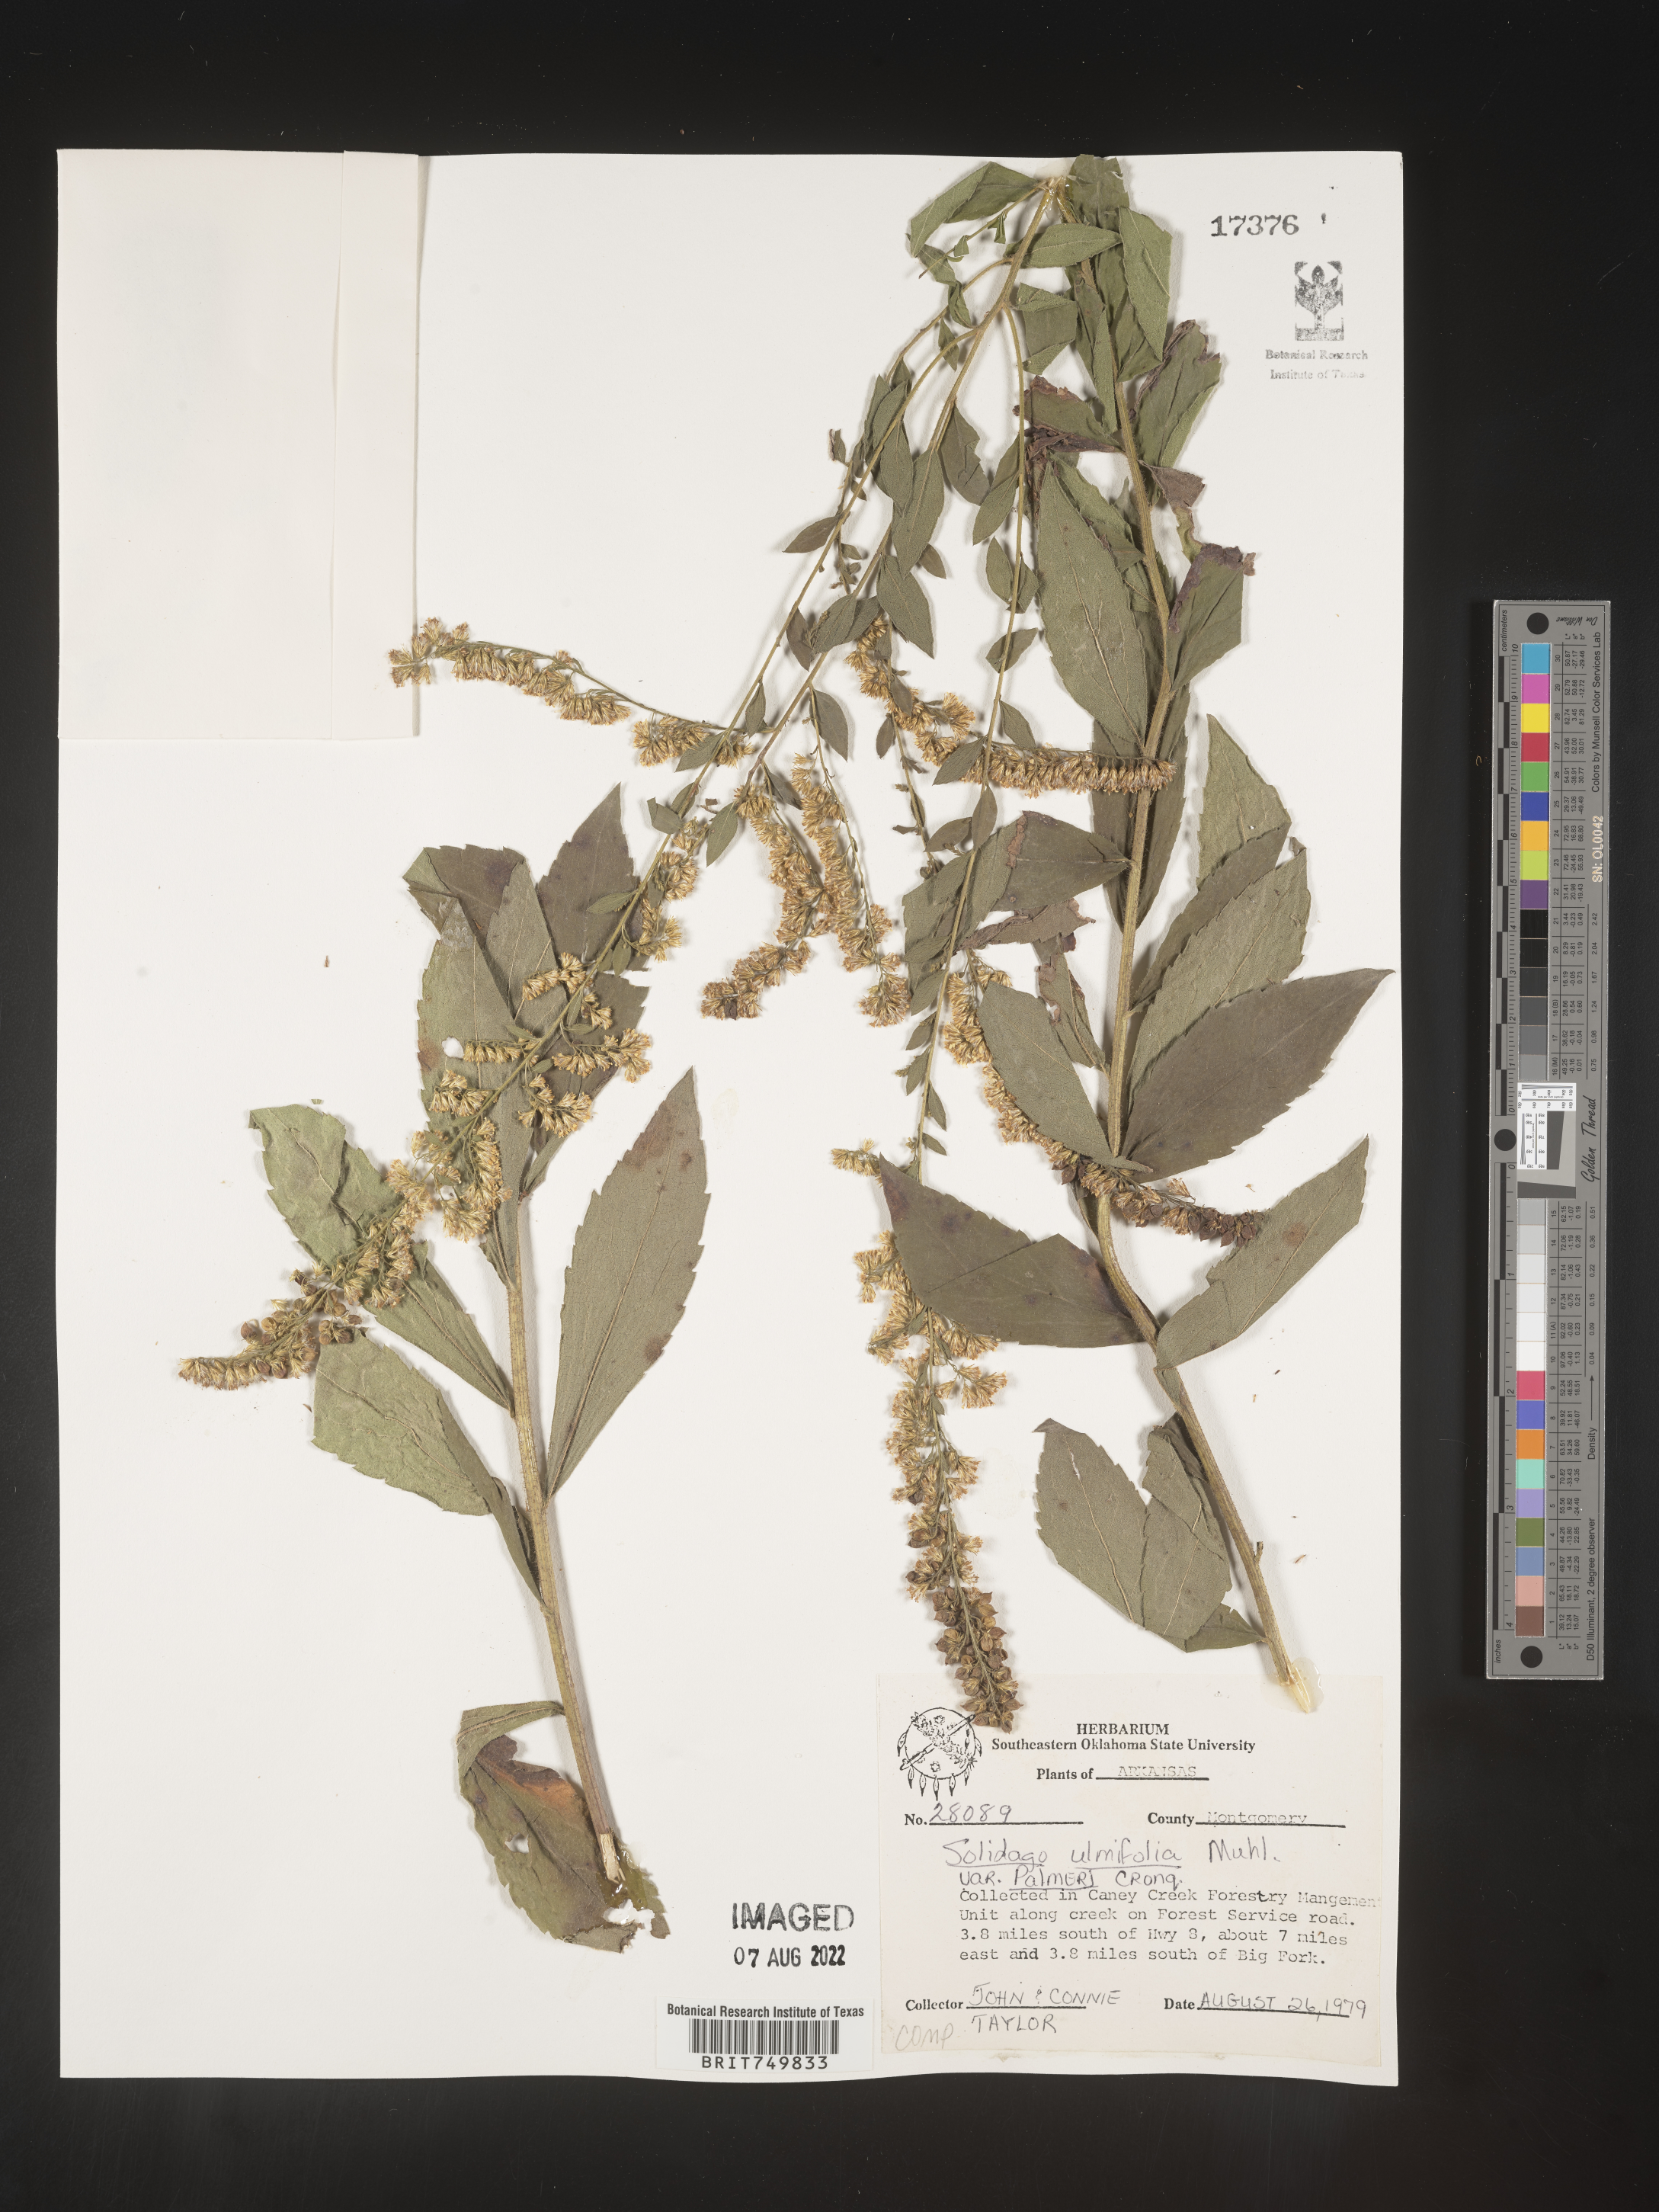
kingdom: Plantae
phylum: Tracheophyta
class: Magnoliopsida
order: Asterales
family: Asteraceae
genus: Solidago
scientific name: Solidago ulmifolia
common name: Elm-leaf goldenrod
